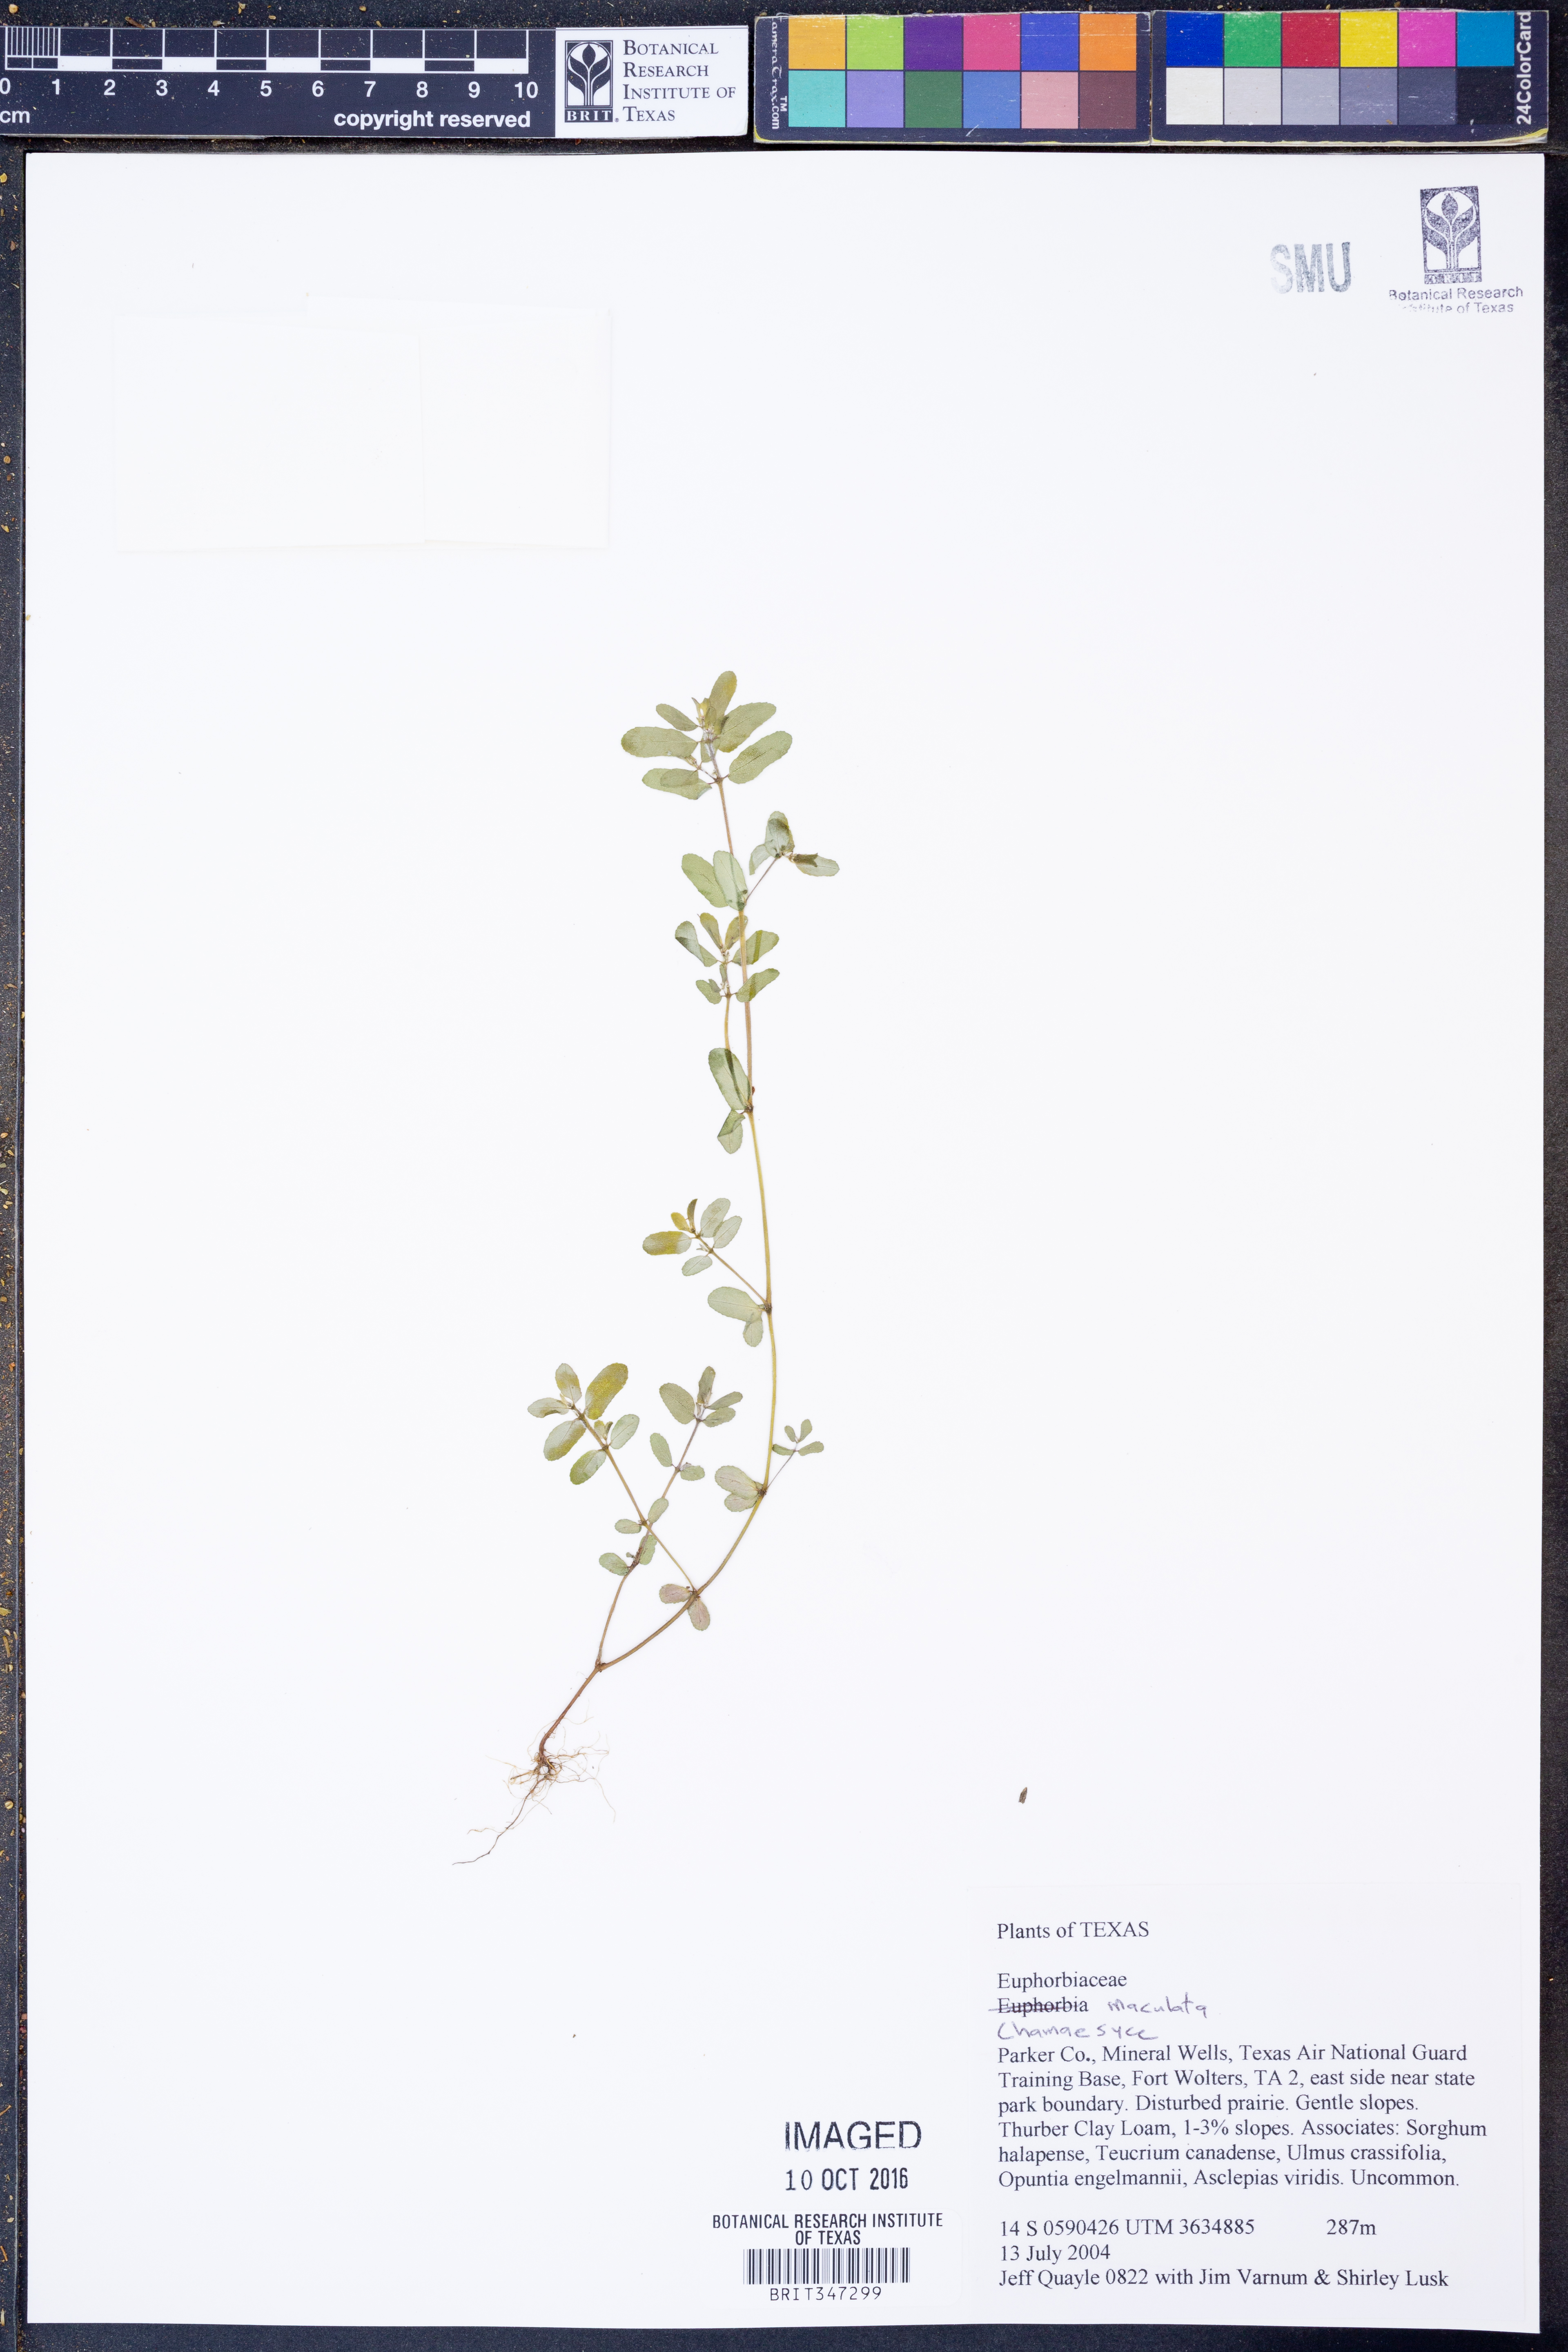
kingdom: Plantae
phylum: Tracheophyta
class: Magnoliopsida
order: Malpighiales
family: Euphorbiaceae
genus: Euphorbia
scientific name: Euphorbia maculata
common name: Spotted spurge
